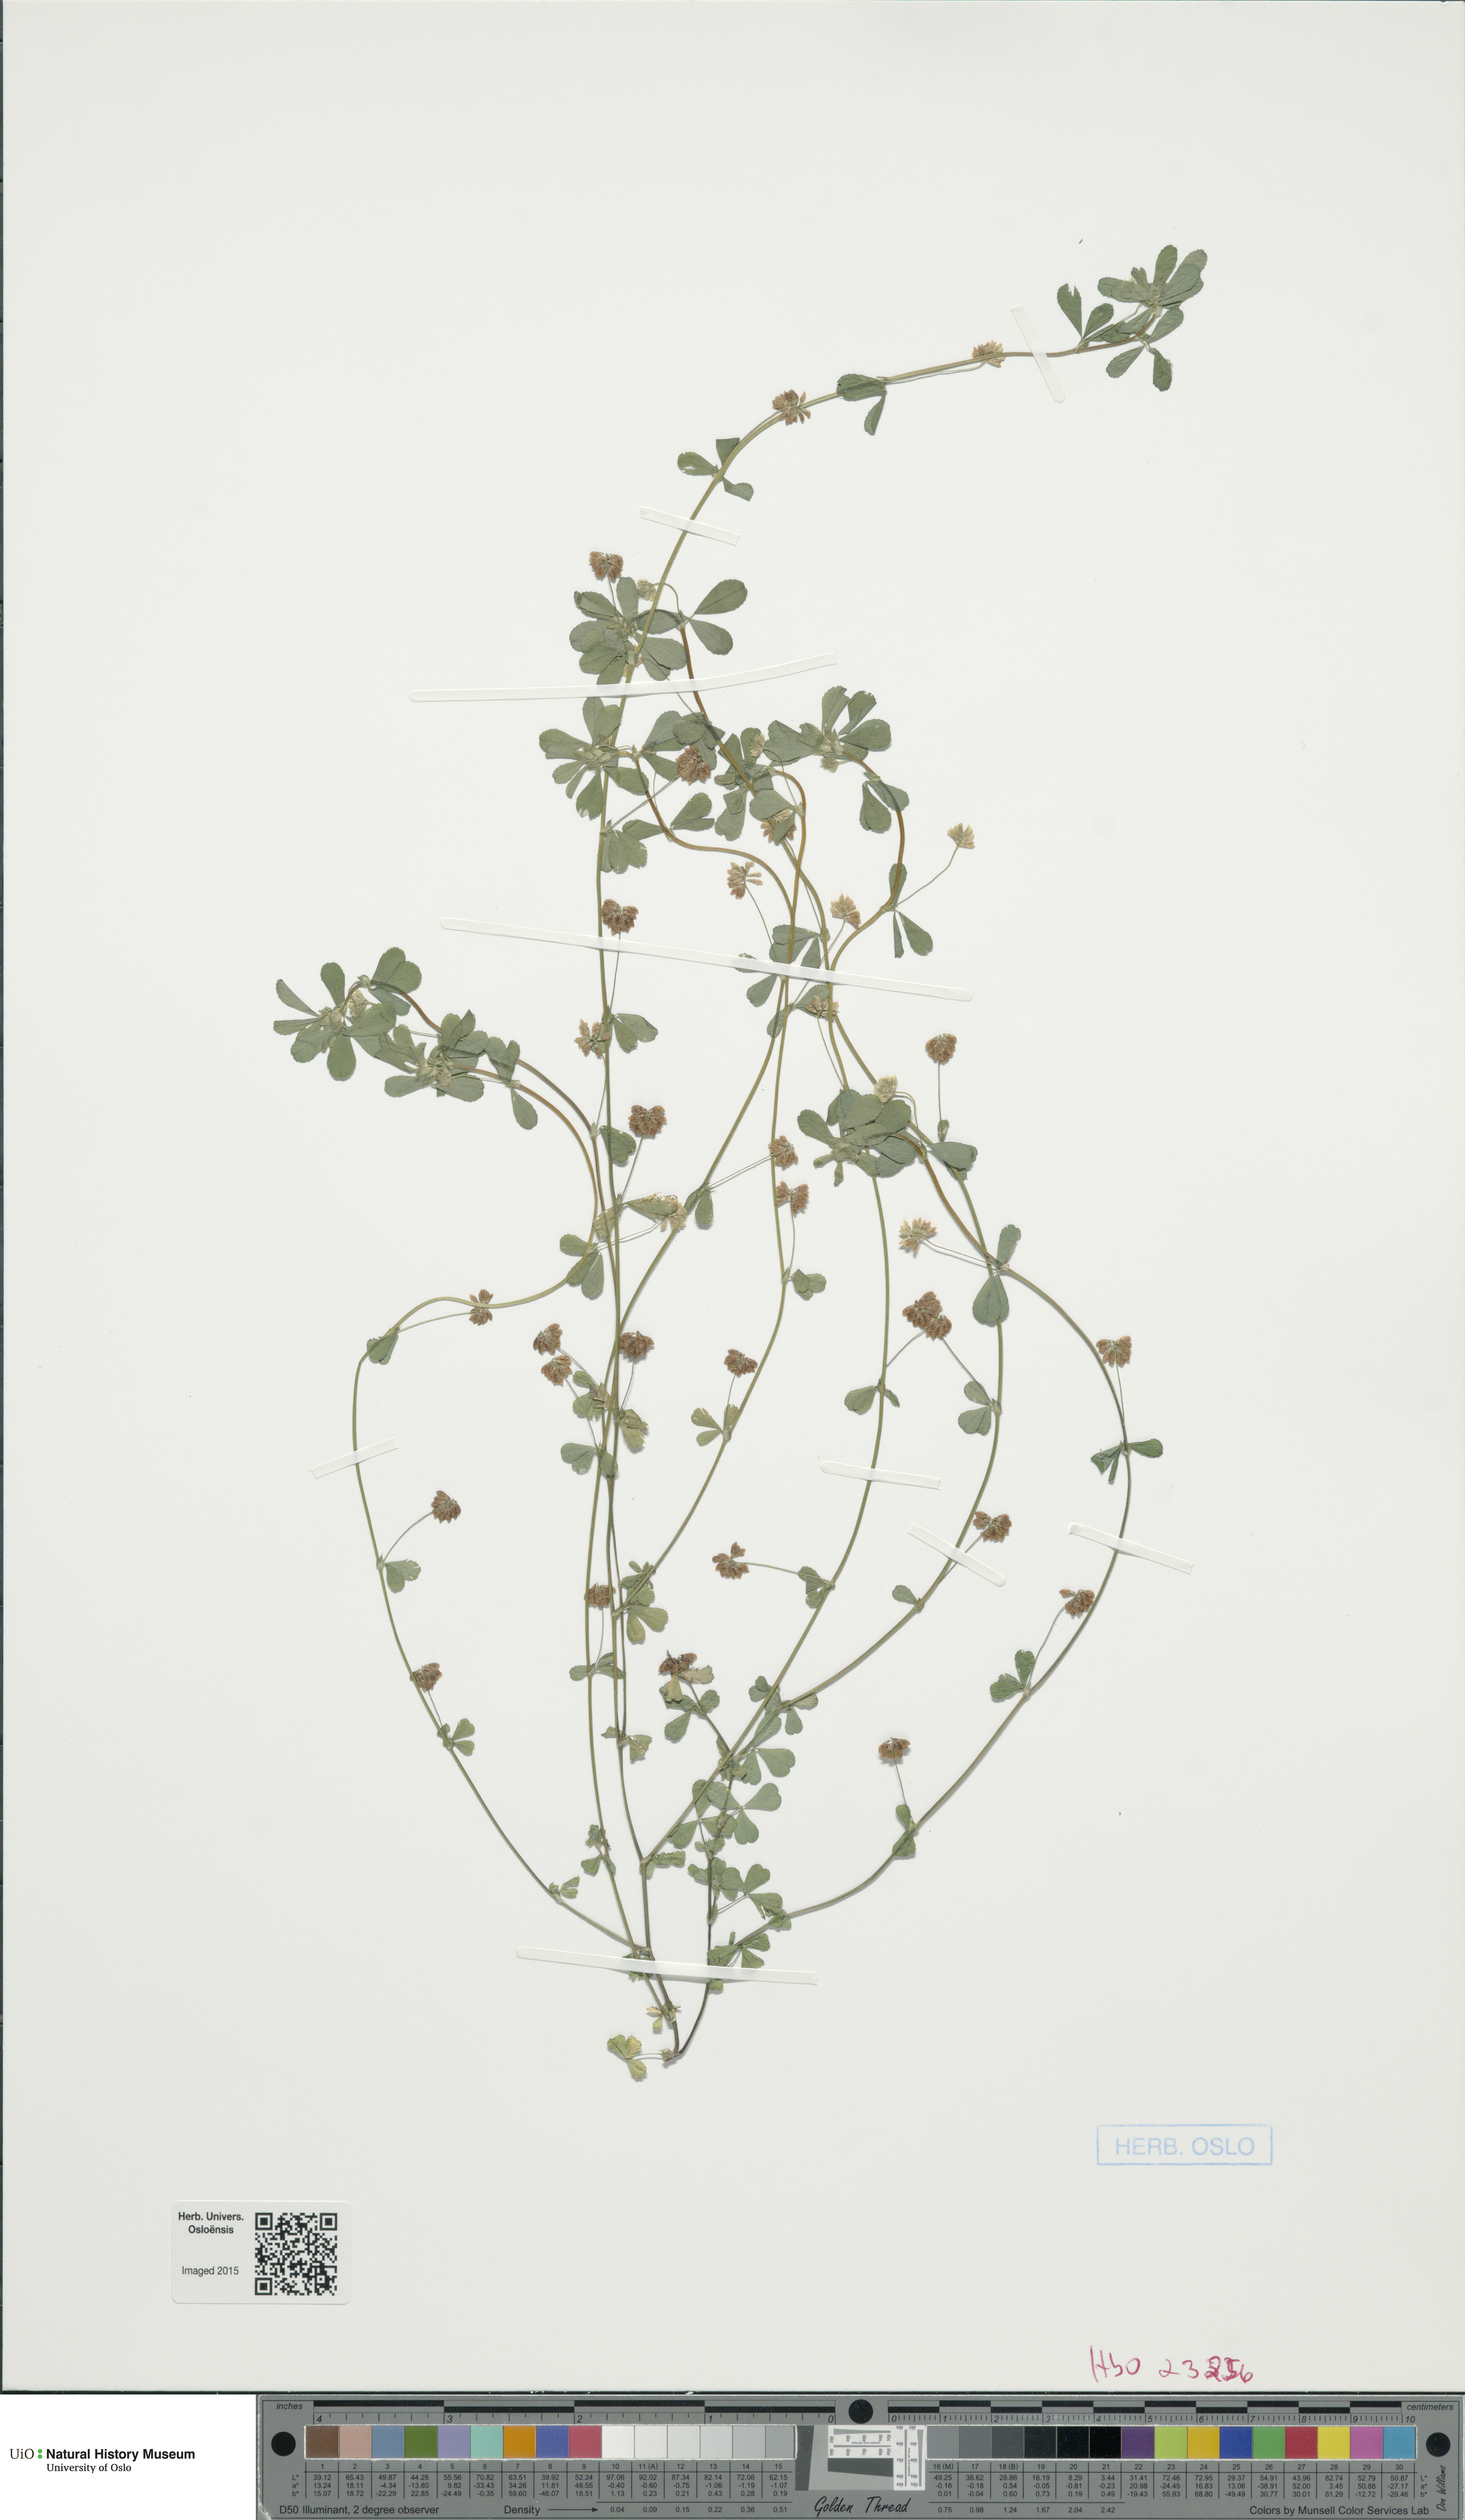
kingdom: Plantae
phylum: Tracheophyta
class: Magnoliopsida
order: Fabales
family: Fabaceae
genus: Trifolium
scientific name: Trifolium dubium
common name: Suckling clover
